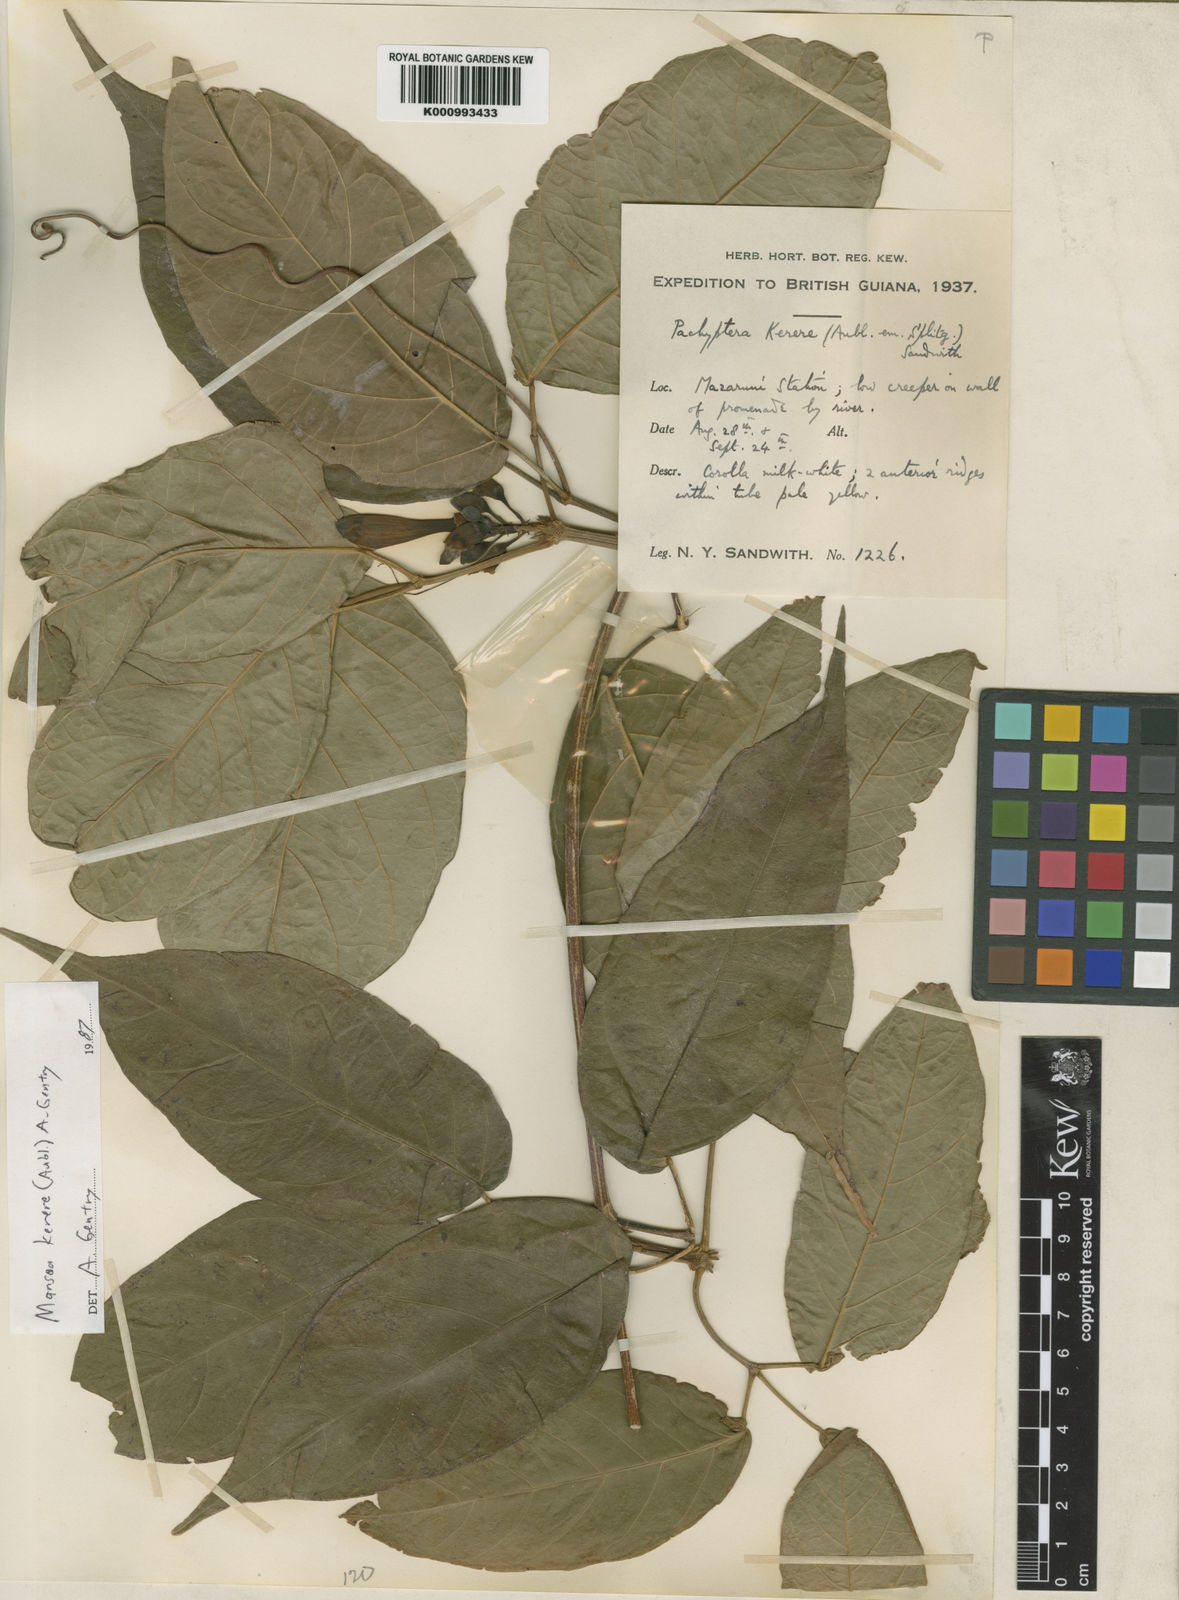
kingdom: Plantae
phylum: Tracheophyta
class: Magnoliopsida
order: Lamiales
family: Bignoniaceae
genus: Pachyptera
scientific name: Pachyptera kerere
